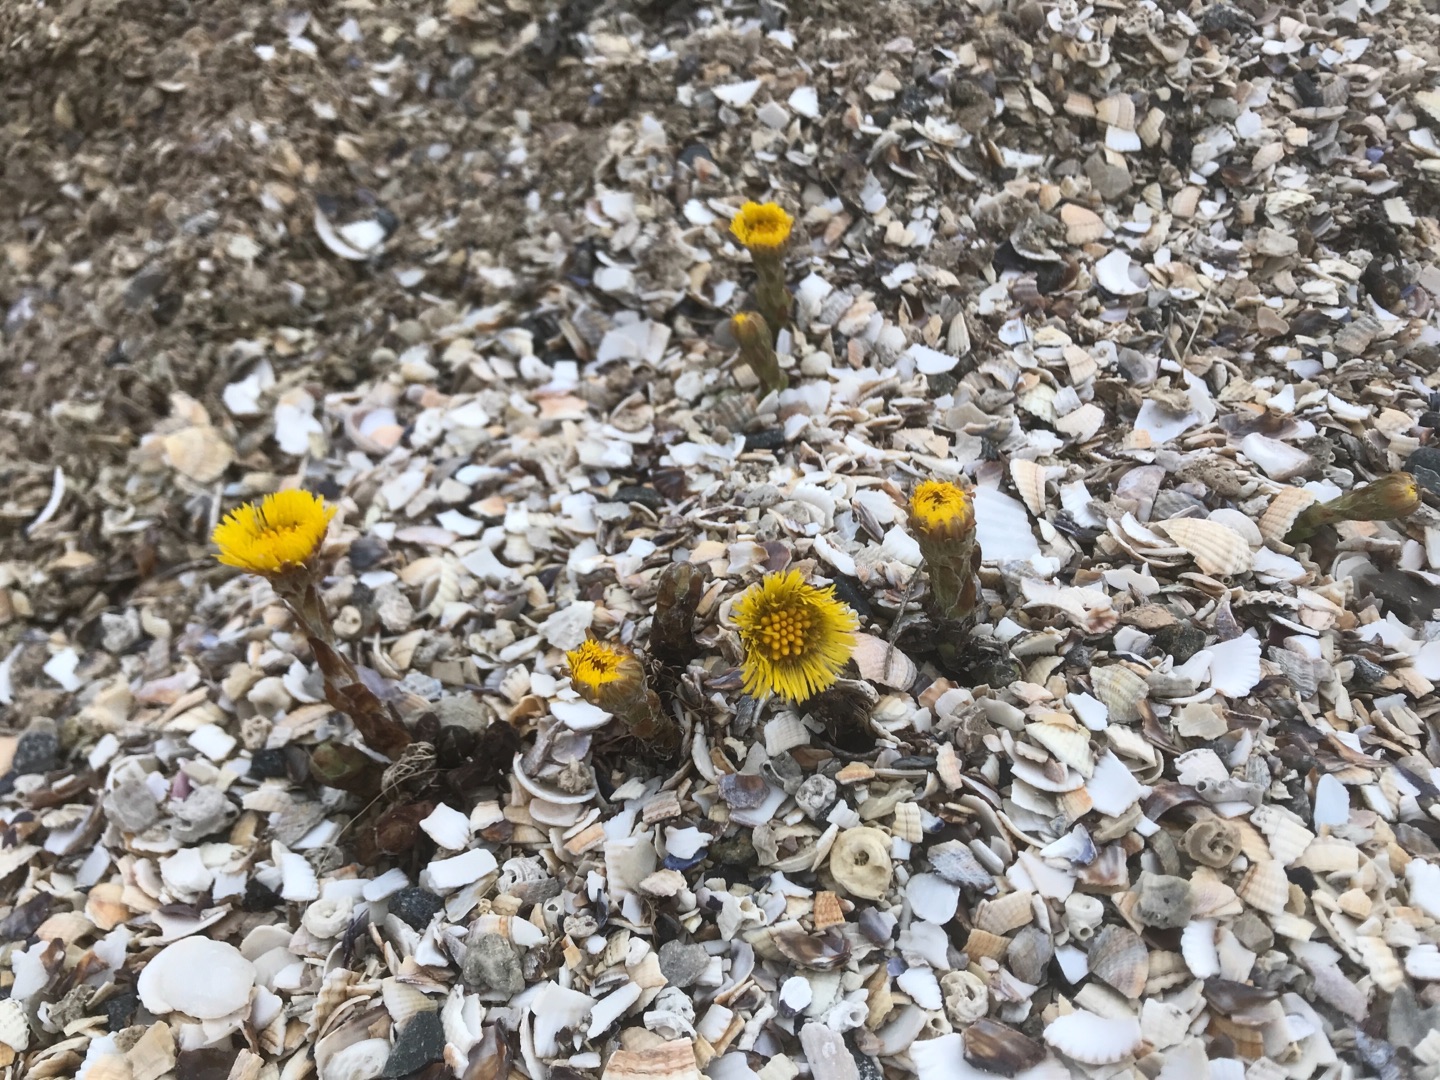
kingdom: Plantae
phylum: Tracheophyta
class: Magnoliopsida
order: Asterales
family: Asteraceae
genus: Tussilago
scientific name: Tussilago farfara
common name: Følfod
